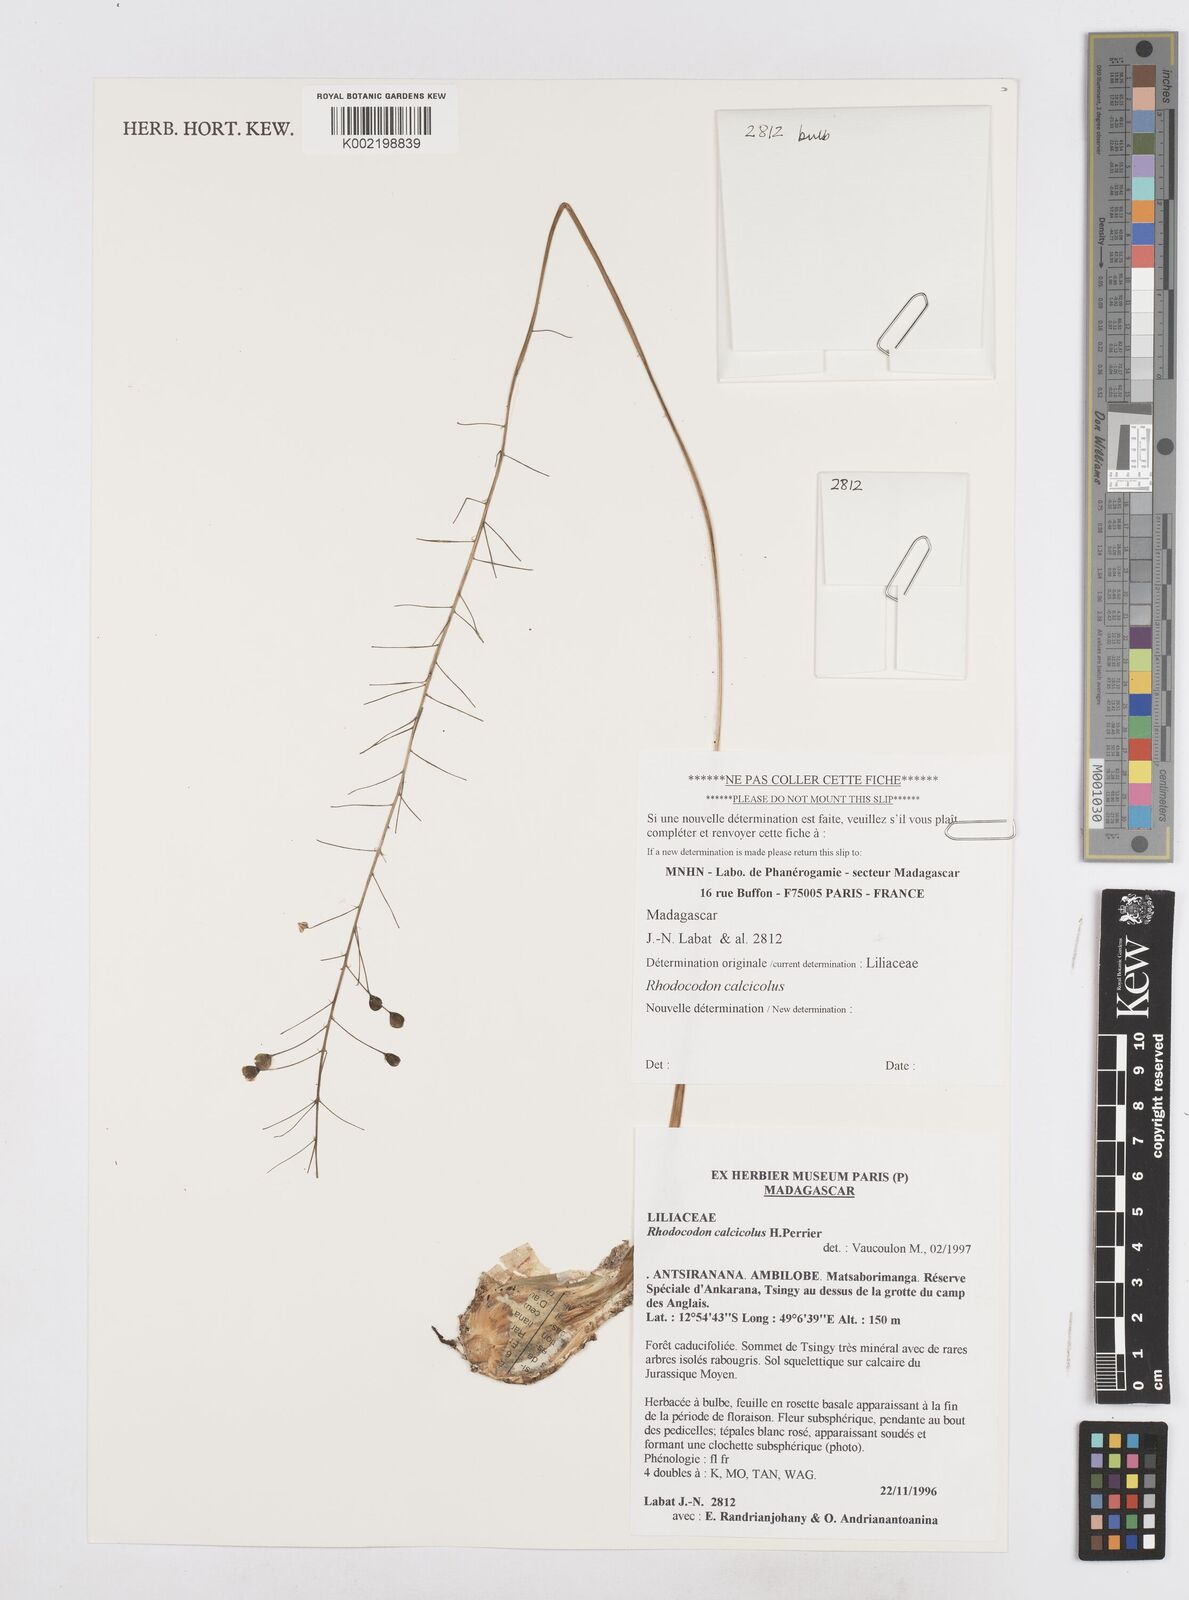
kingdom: Plantae
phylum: Tracheophyta
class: Liliopsida
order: Asparagales
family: Asparagaceae
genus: Drimia
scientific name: Drimia Rhodocodon calcicola
